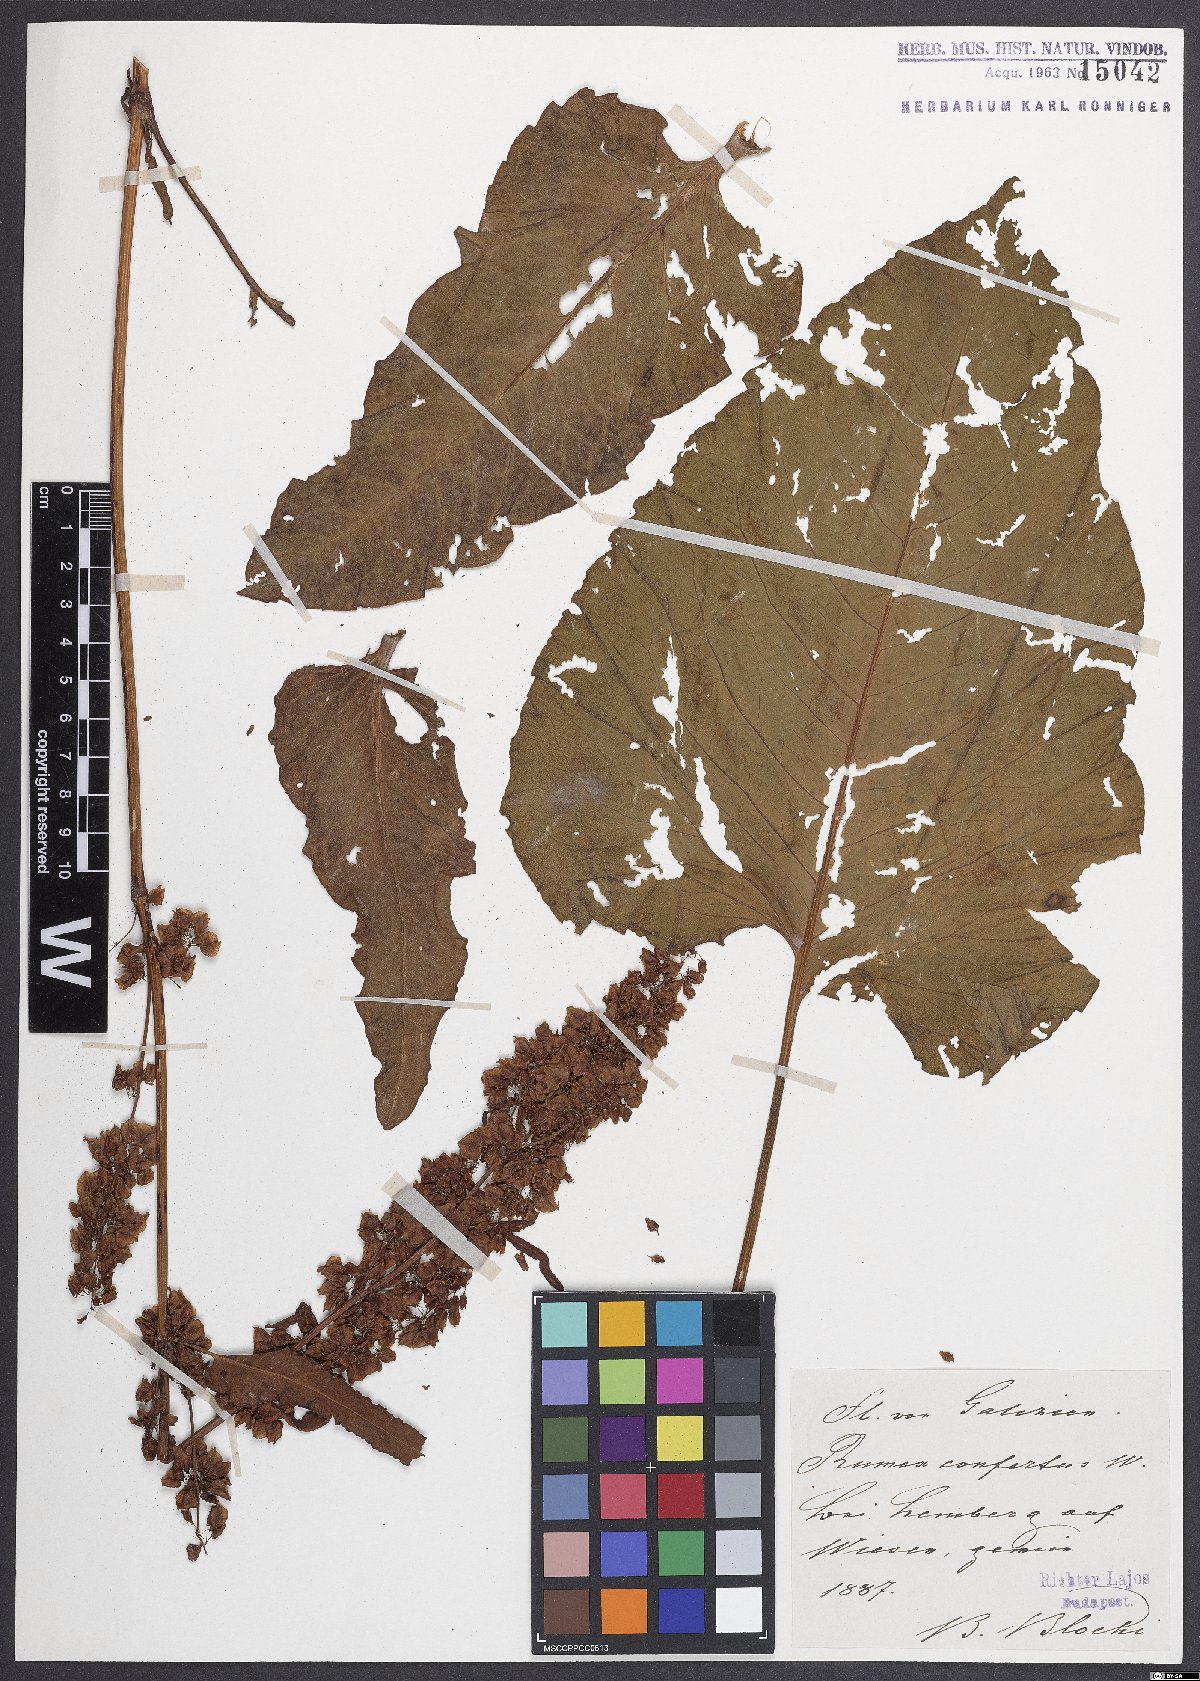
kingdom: Plantae
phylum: Tracheophyta
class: Magnoliopsida
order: Caryophyllales
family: Polygonaceae
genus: Rumex
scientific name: Rumex confertus
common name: Russian dock
